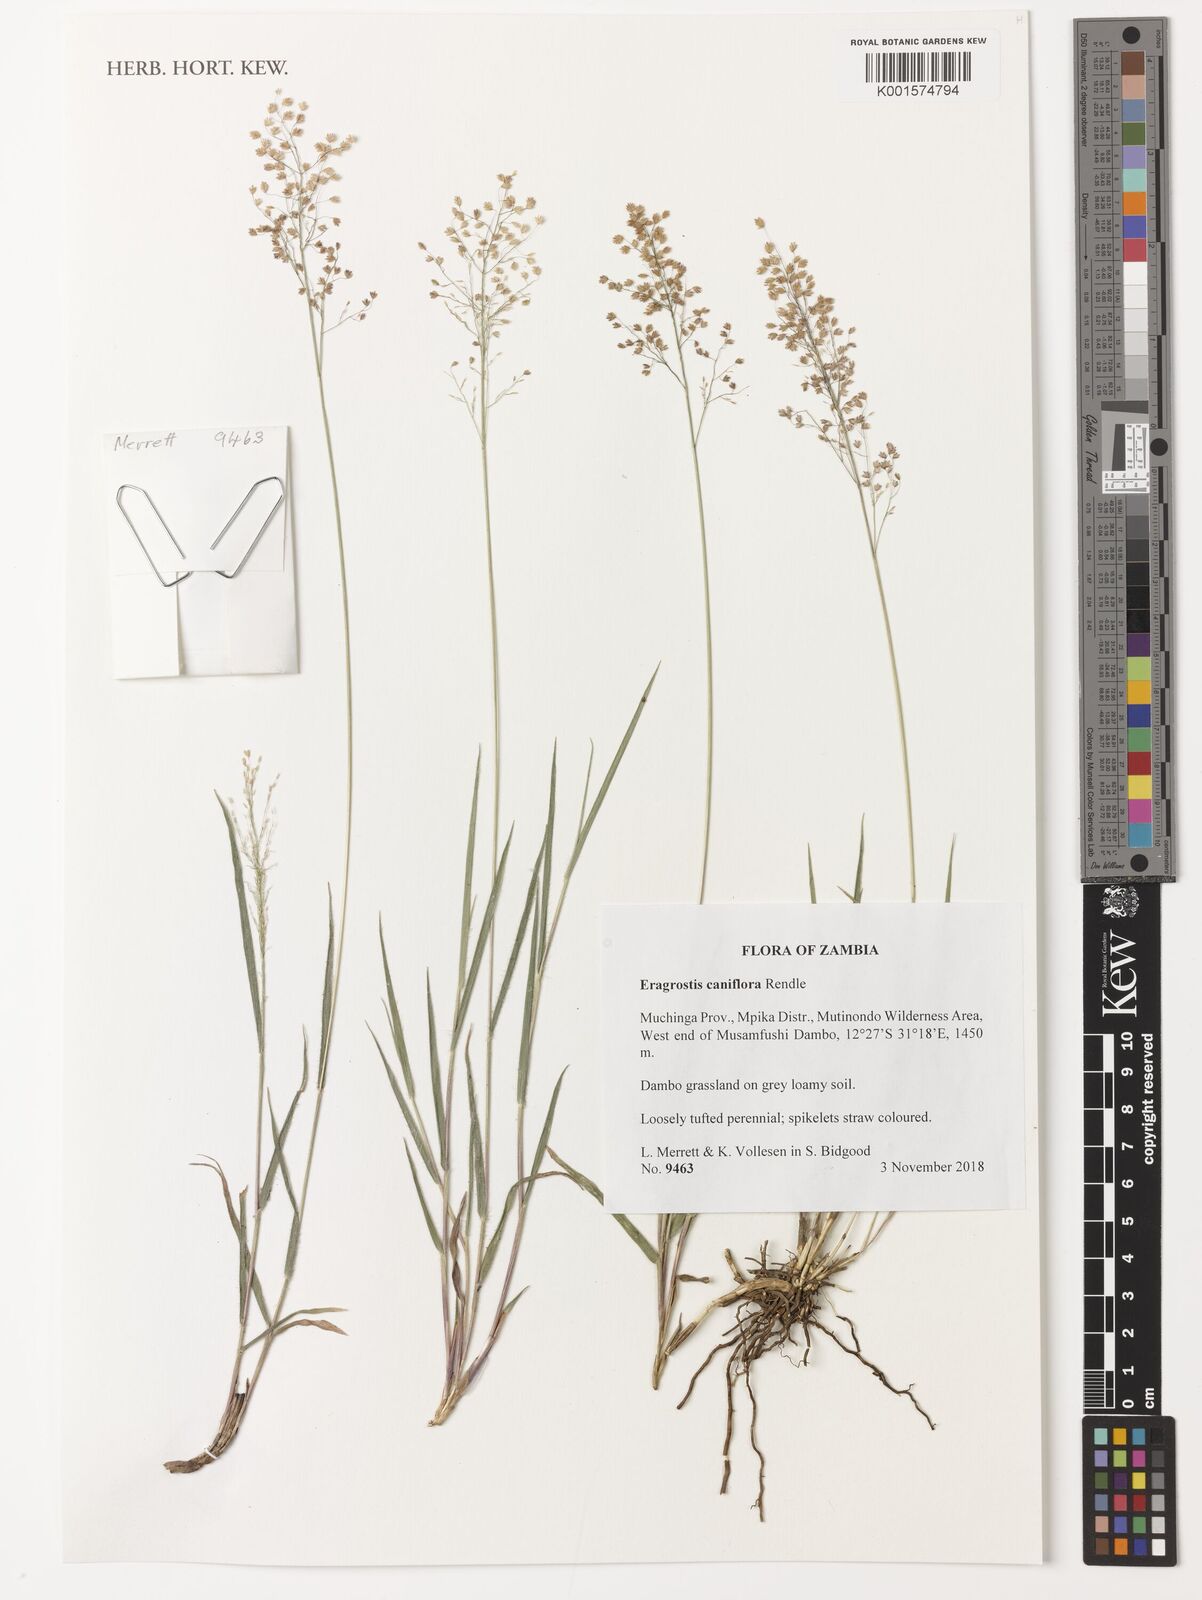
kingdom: Plantae
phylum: Tracheophyta
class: Liliopsida
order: Poales
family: Poaceae
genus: Eragrostis
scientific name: Eragrostis caniflora
